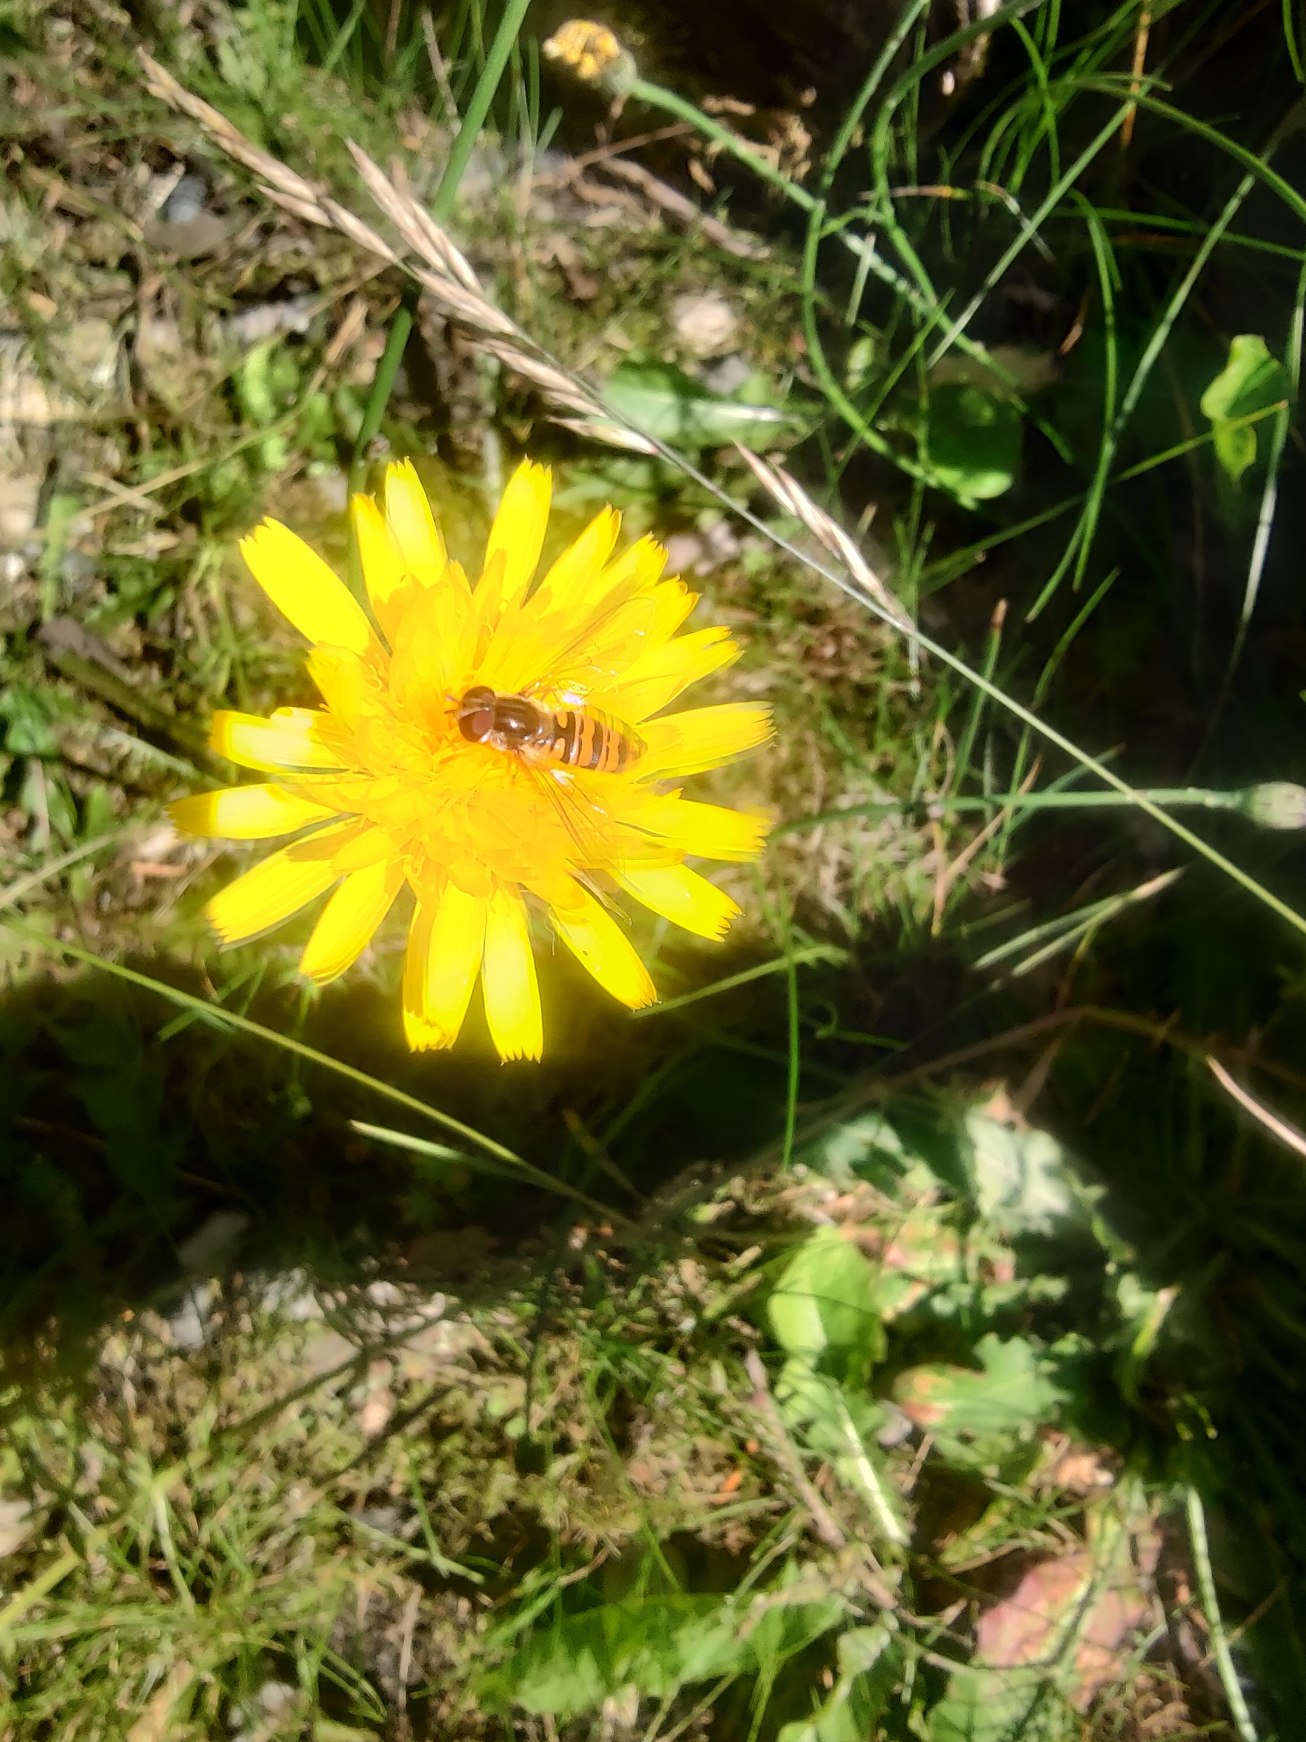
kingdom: Animalia
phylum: Arthropoda
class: Insecta
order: Diptera
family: Syrphidae
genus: Episyrphus
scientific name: Episyrphus balteatus
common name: Dobbeltbåndet svirreflue
